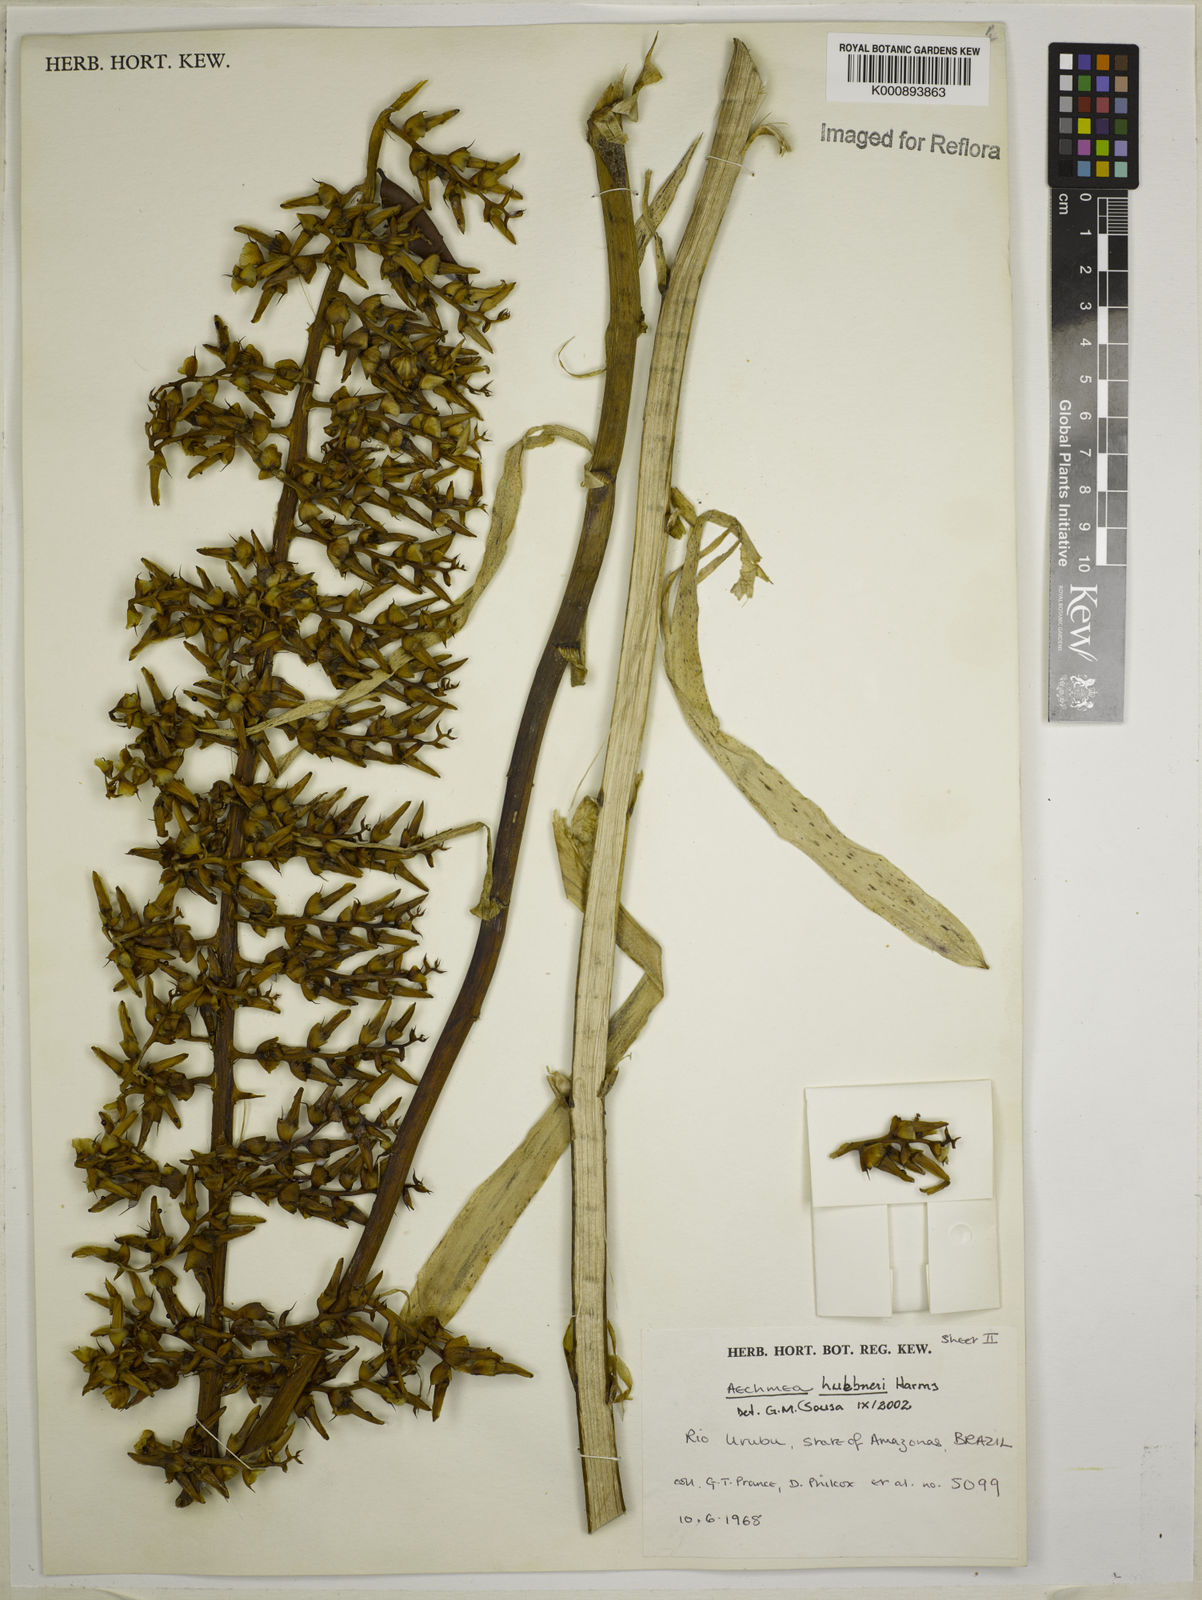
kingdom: Plantae
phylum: Tracheophyta
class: Liliopsida
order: Poales
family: Bromeliaceae
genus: Aechmea
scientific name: Aechmea huebneri
